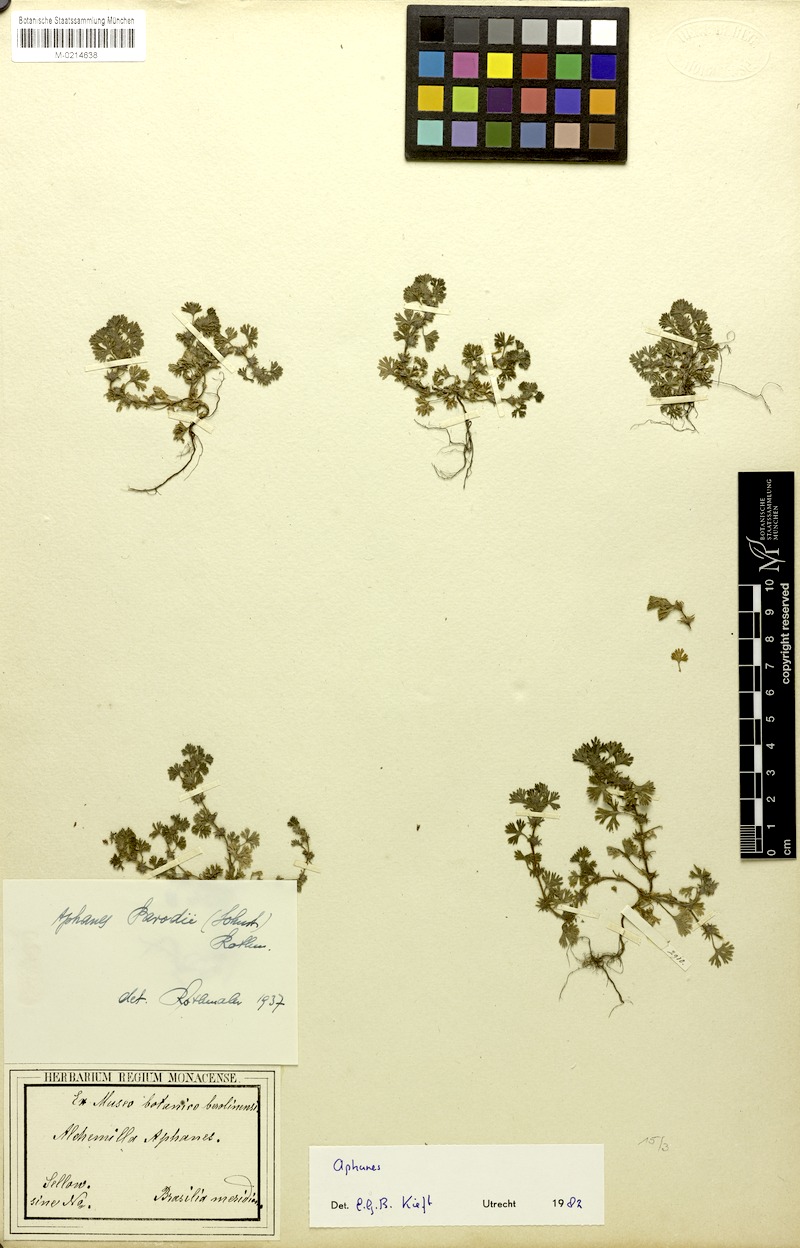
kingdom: Plantae
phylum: Tracheophyta
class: Magnoliopsida
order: Rosales
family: Rosaceae
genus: Aphanes
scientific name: Aphanes parodii
